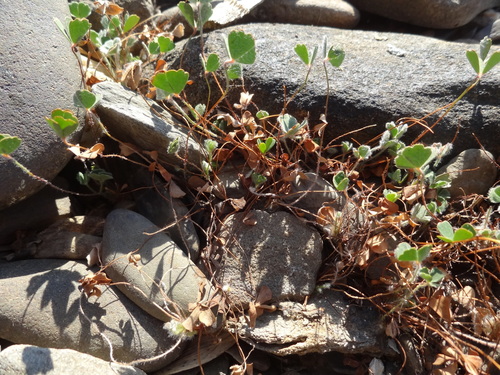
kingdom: Plantae
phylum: Tracheophyta
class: Polypodiopsida
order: Salviniales
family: Marsileaceae
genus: Marsilea
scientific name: Marsilea batardae
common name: Lusitanian water clover
